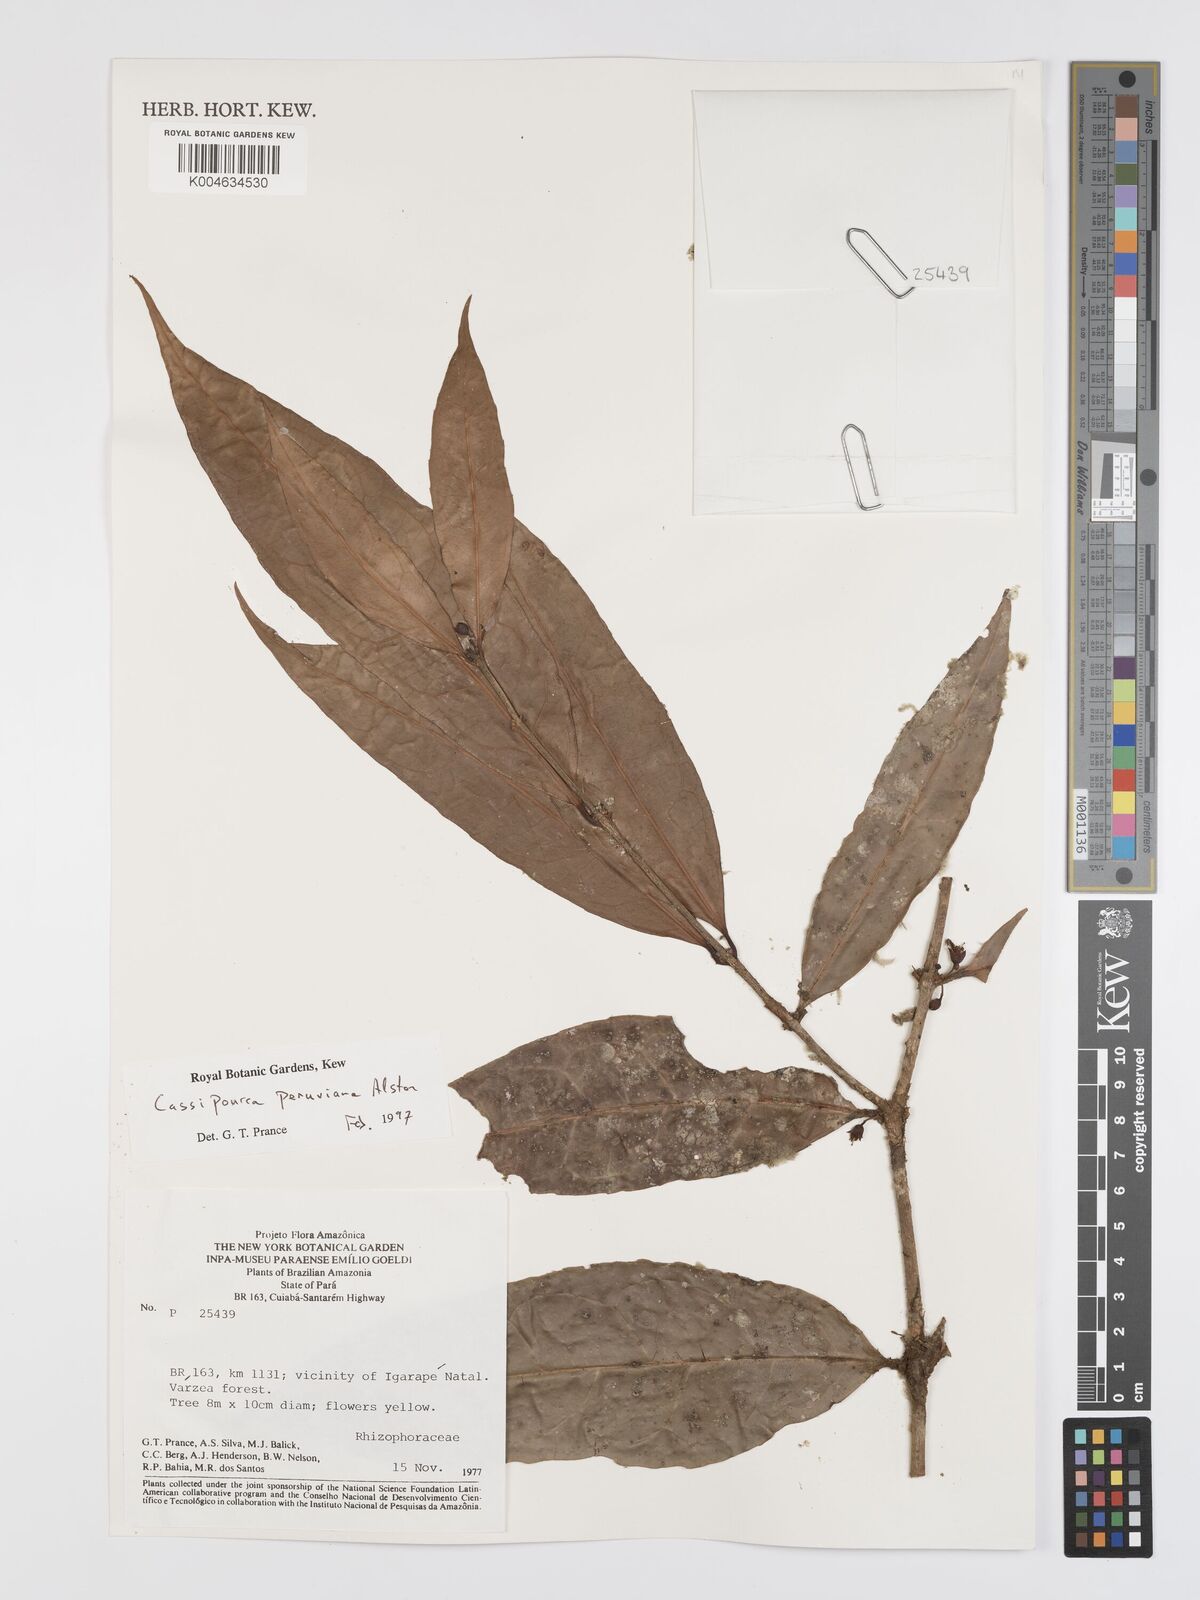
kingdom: Plantae
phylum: Tracheophyta
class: Magnoliopsida
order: Malpighiales
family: Rhizophoraceae
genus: Cassipourea
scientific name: Cassipourea peruviana
